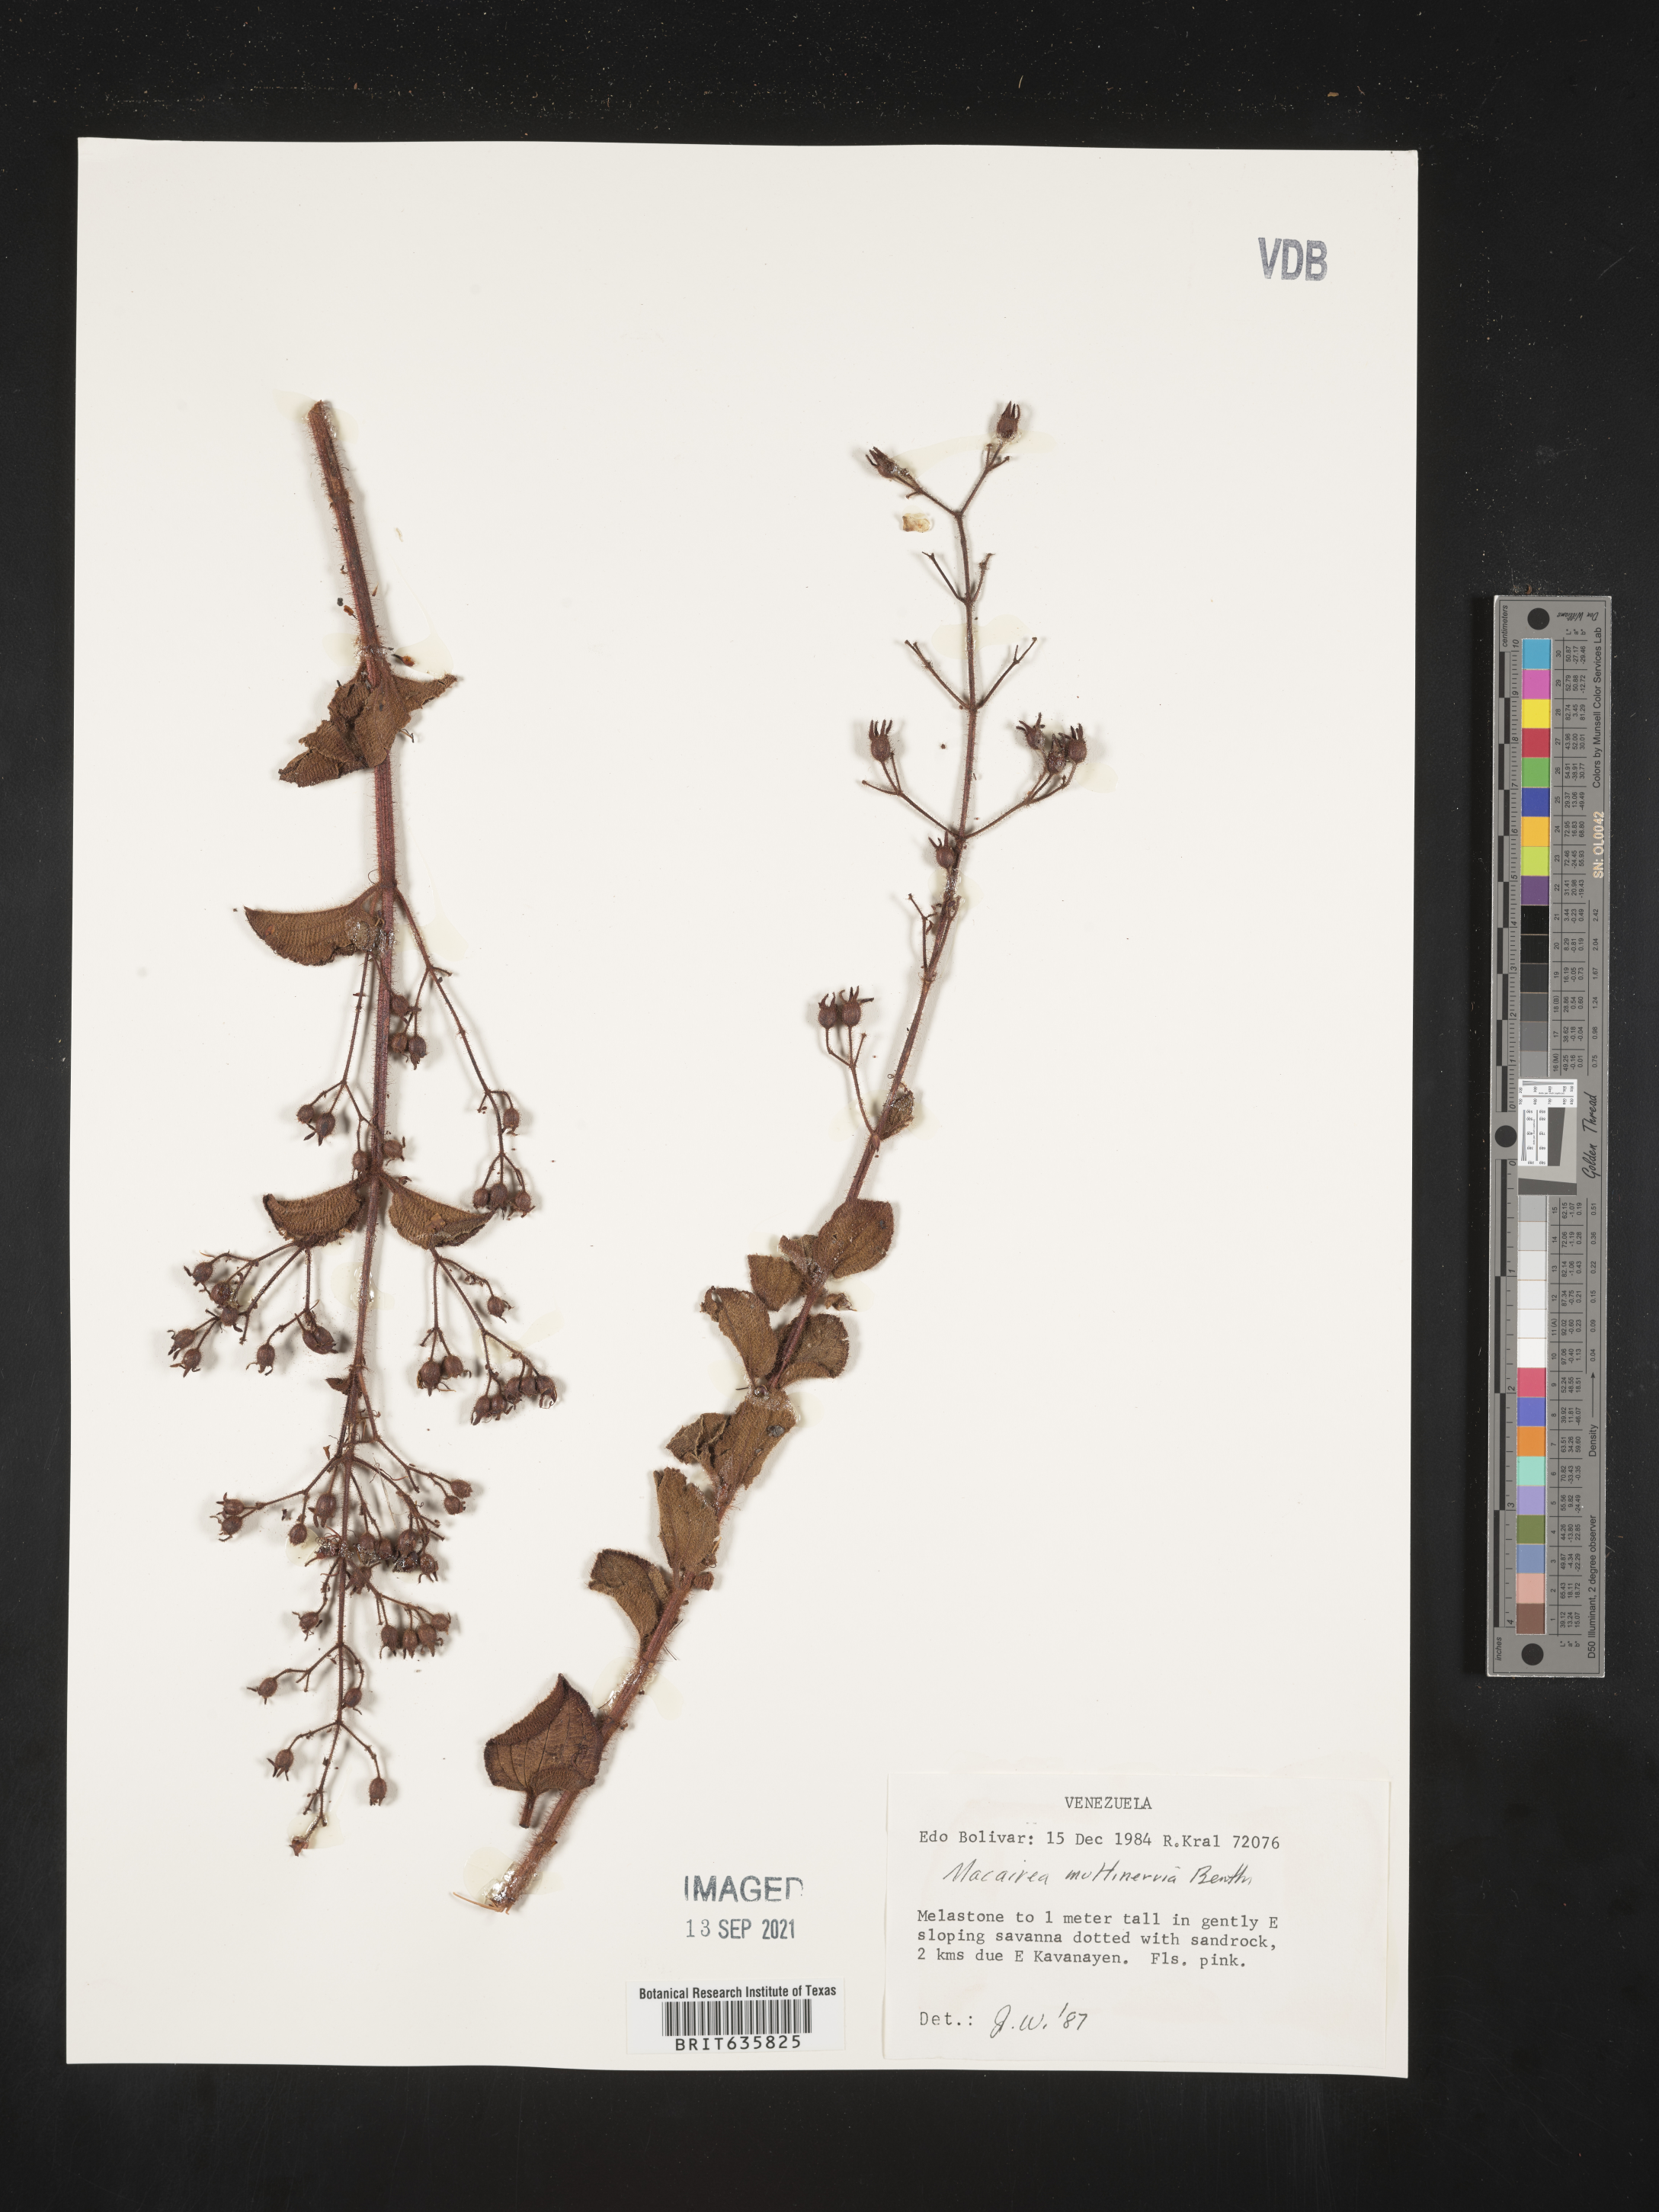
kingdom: Plantae
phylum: Tracheophyta
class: Magnoliopsida
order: Myrtales
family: Melastomataceae
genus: Macairea
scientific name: Macairea
